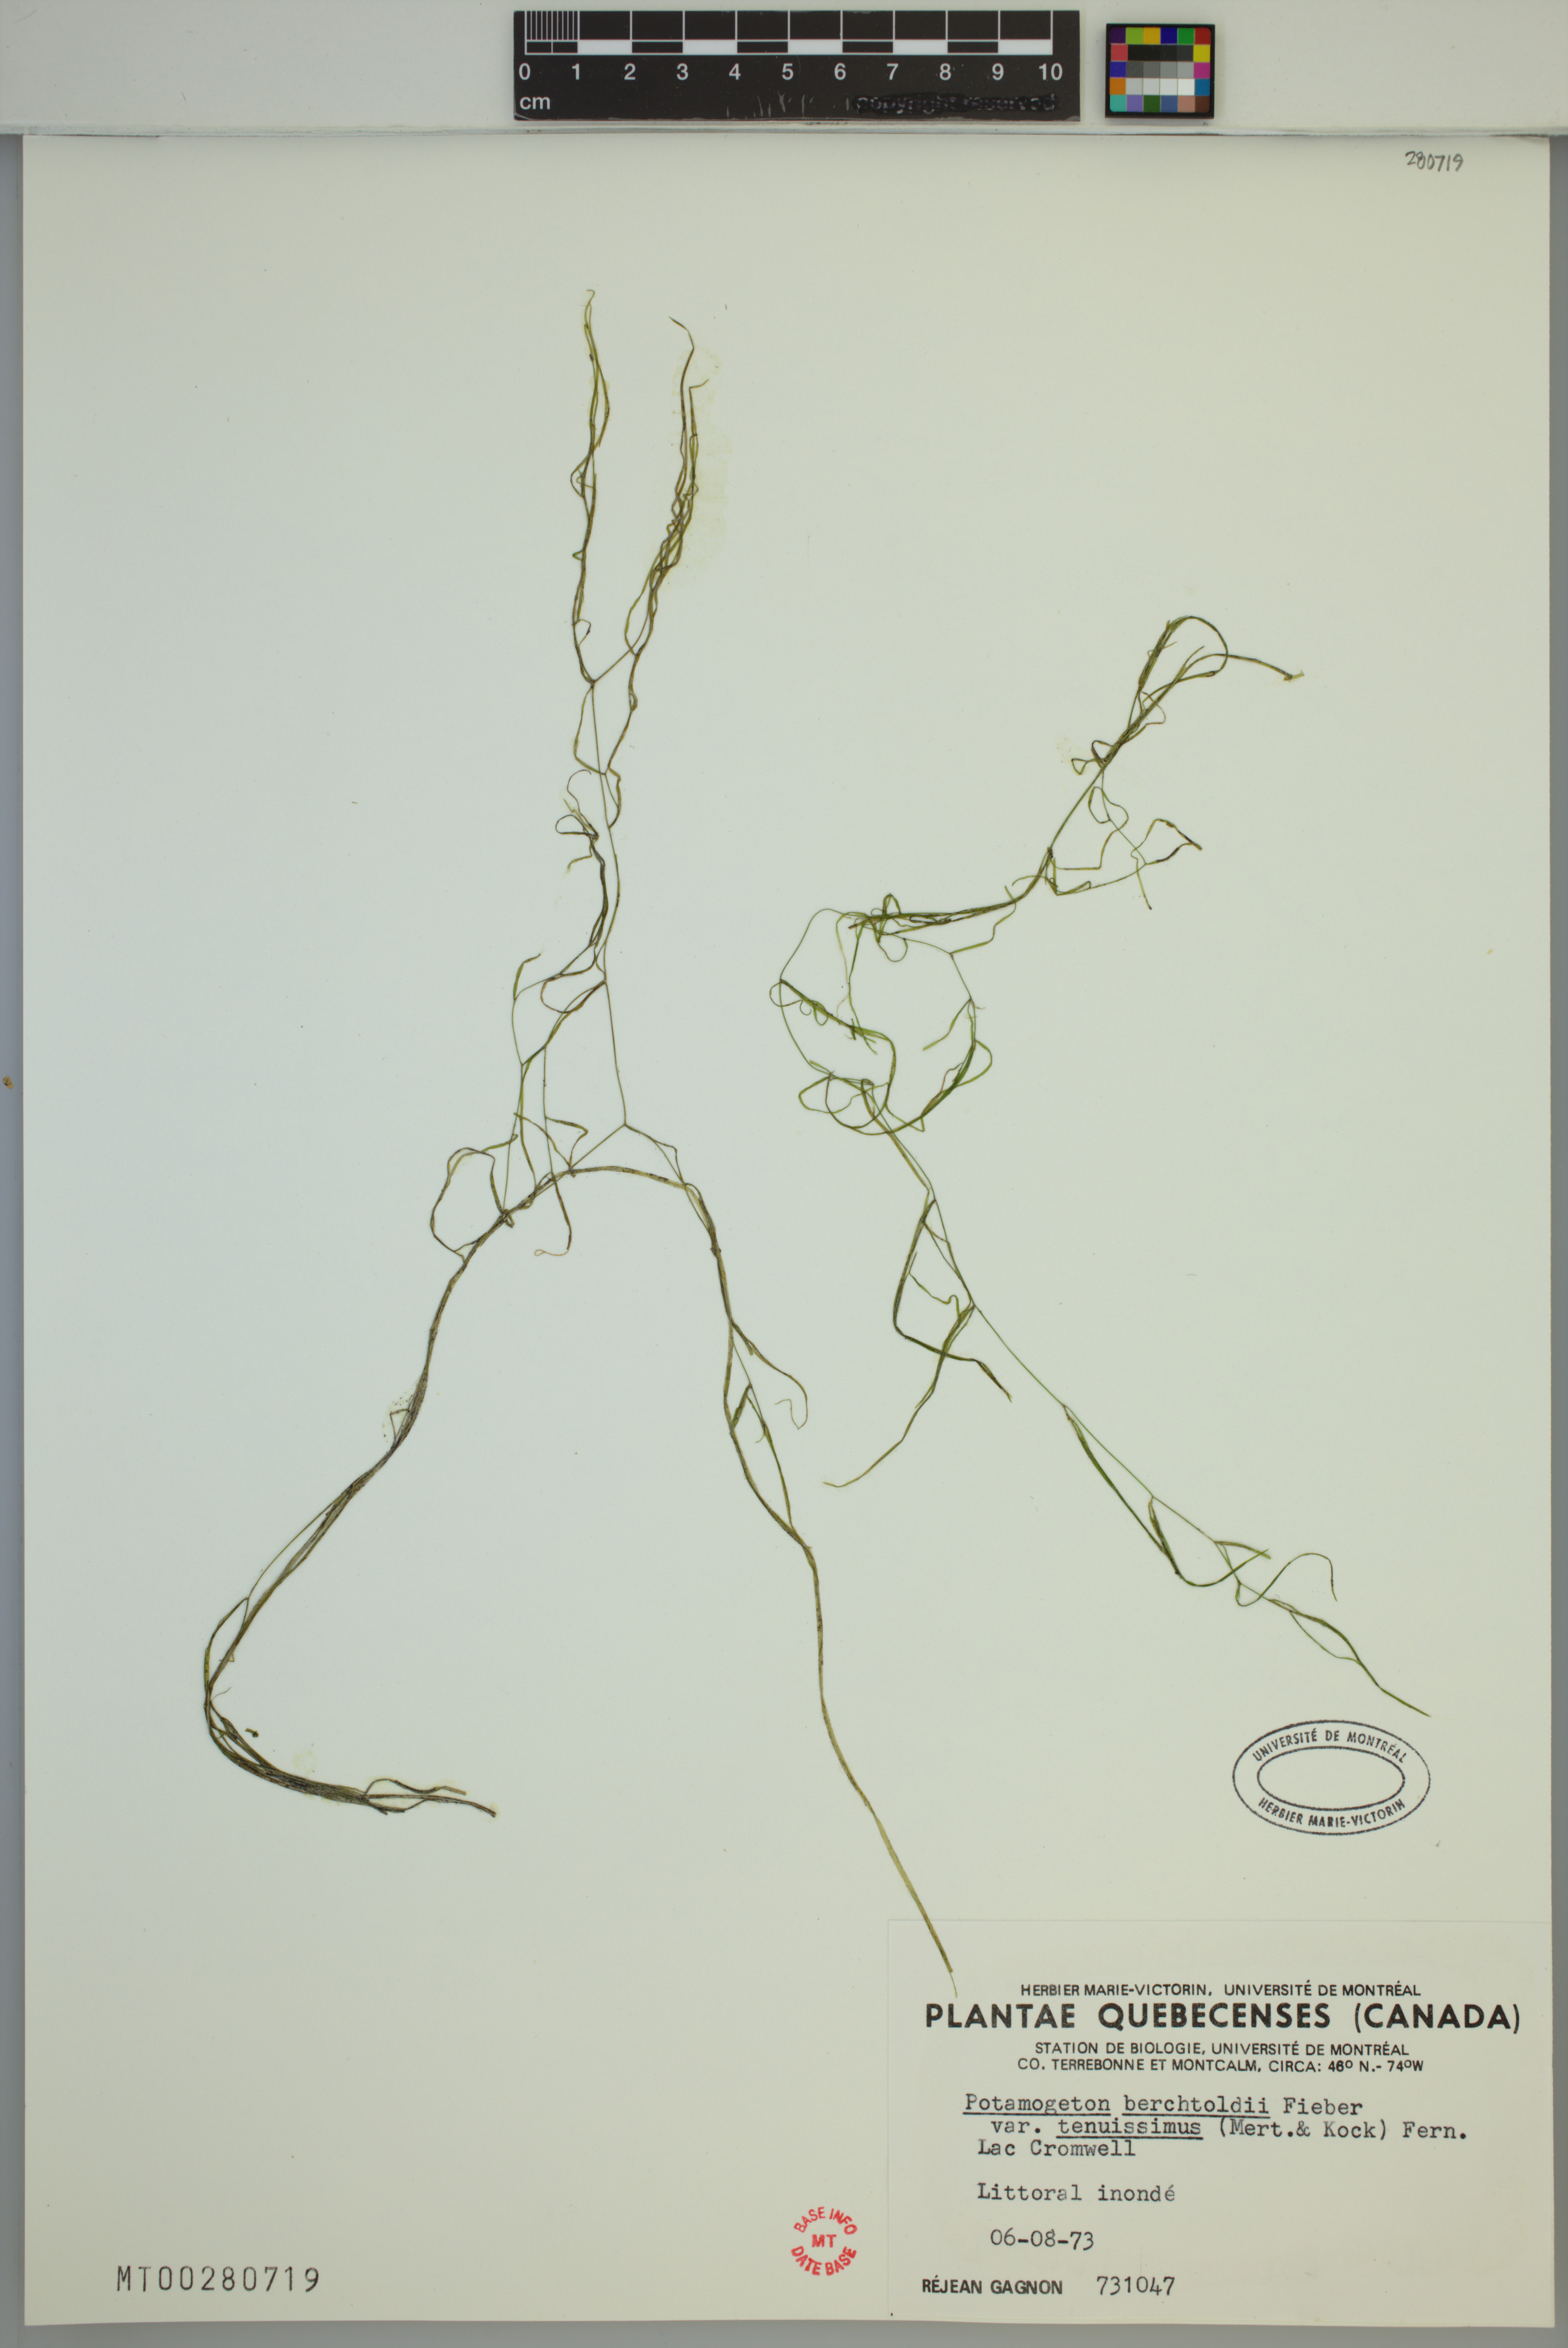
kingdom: Plantae
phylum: Tracheophyta
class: Liliopsida
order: Alismatales
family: Potamogetonaceae
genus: Potamogeton
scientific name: Potamogeton berchtoldii
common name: Small pondweed
